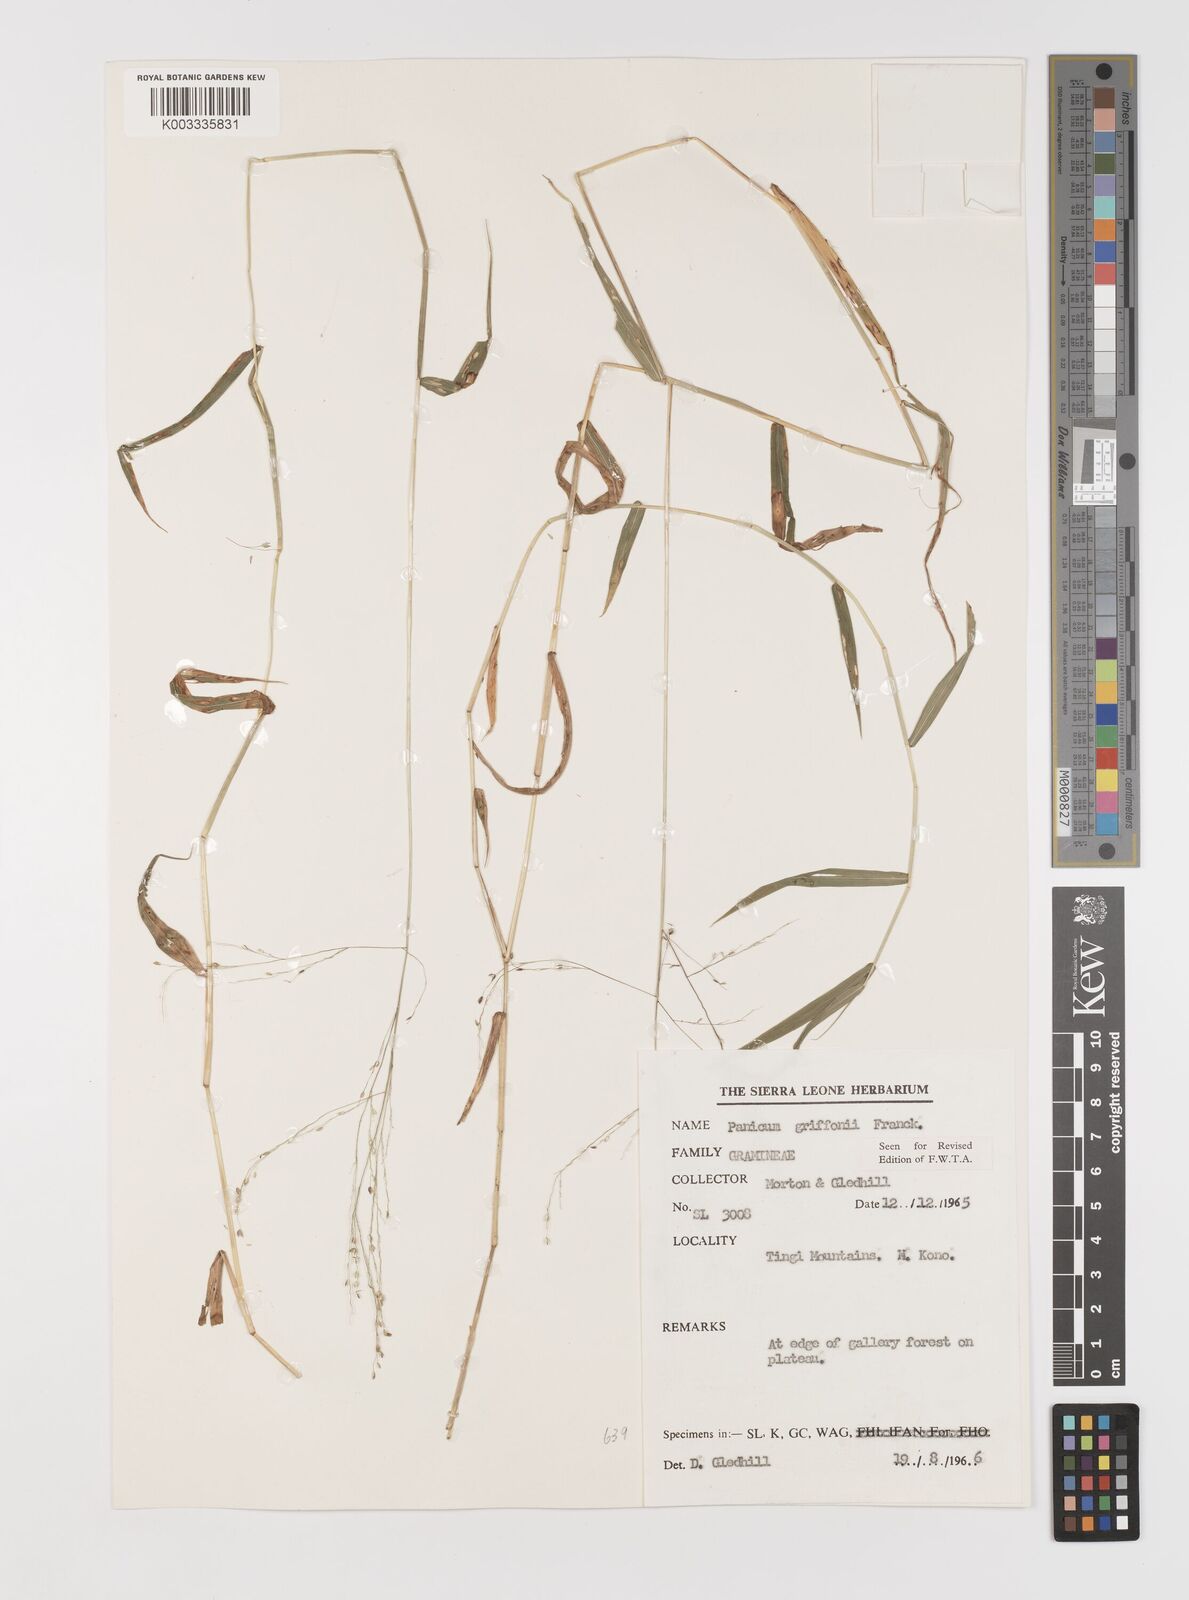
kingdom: Plantae
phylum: Tracheophyta
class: Liliopsida
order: Poales
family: Poaceae
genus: Panicum
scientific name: Panicum griffonii
